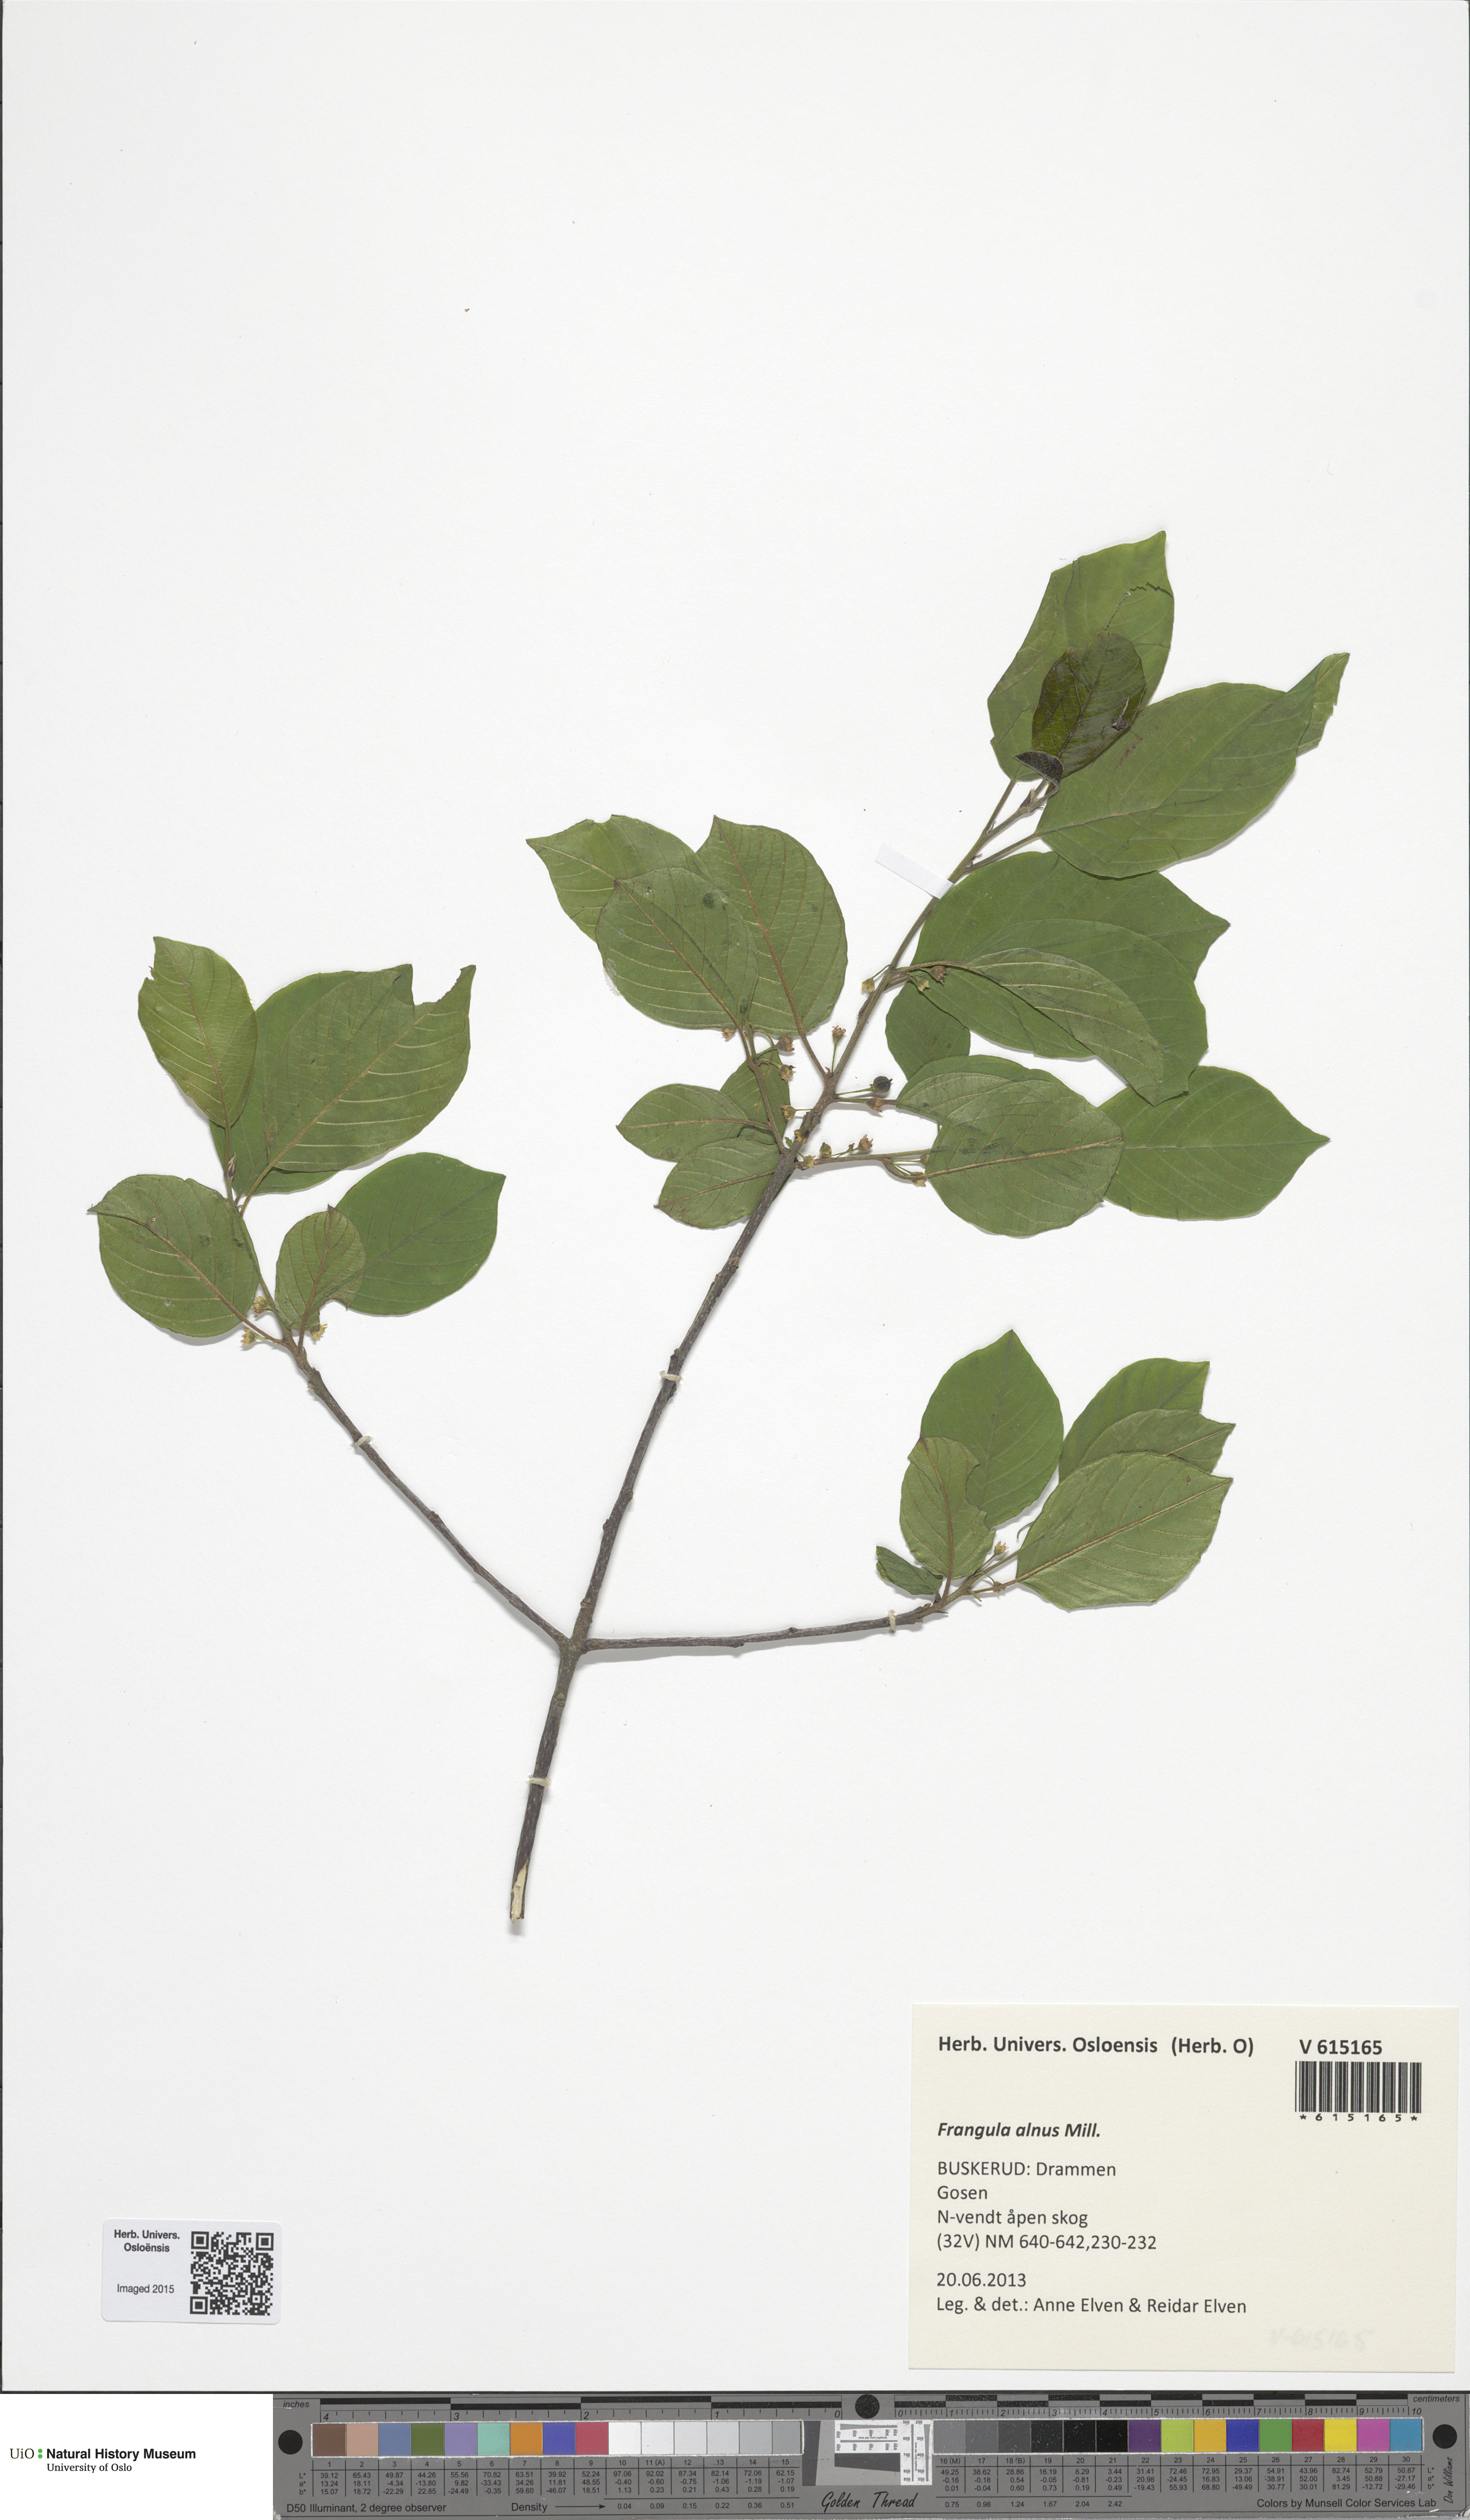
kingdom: Plantae
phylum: Tracheophyta
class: Magnoliopsida
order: Rosales
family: Rhamnaceae
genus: Frangula
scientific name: Frangula alnus
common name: Alder buckthorn
